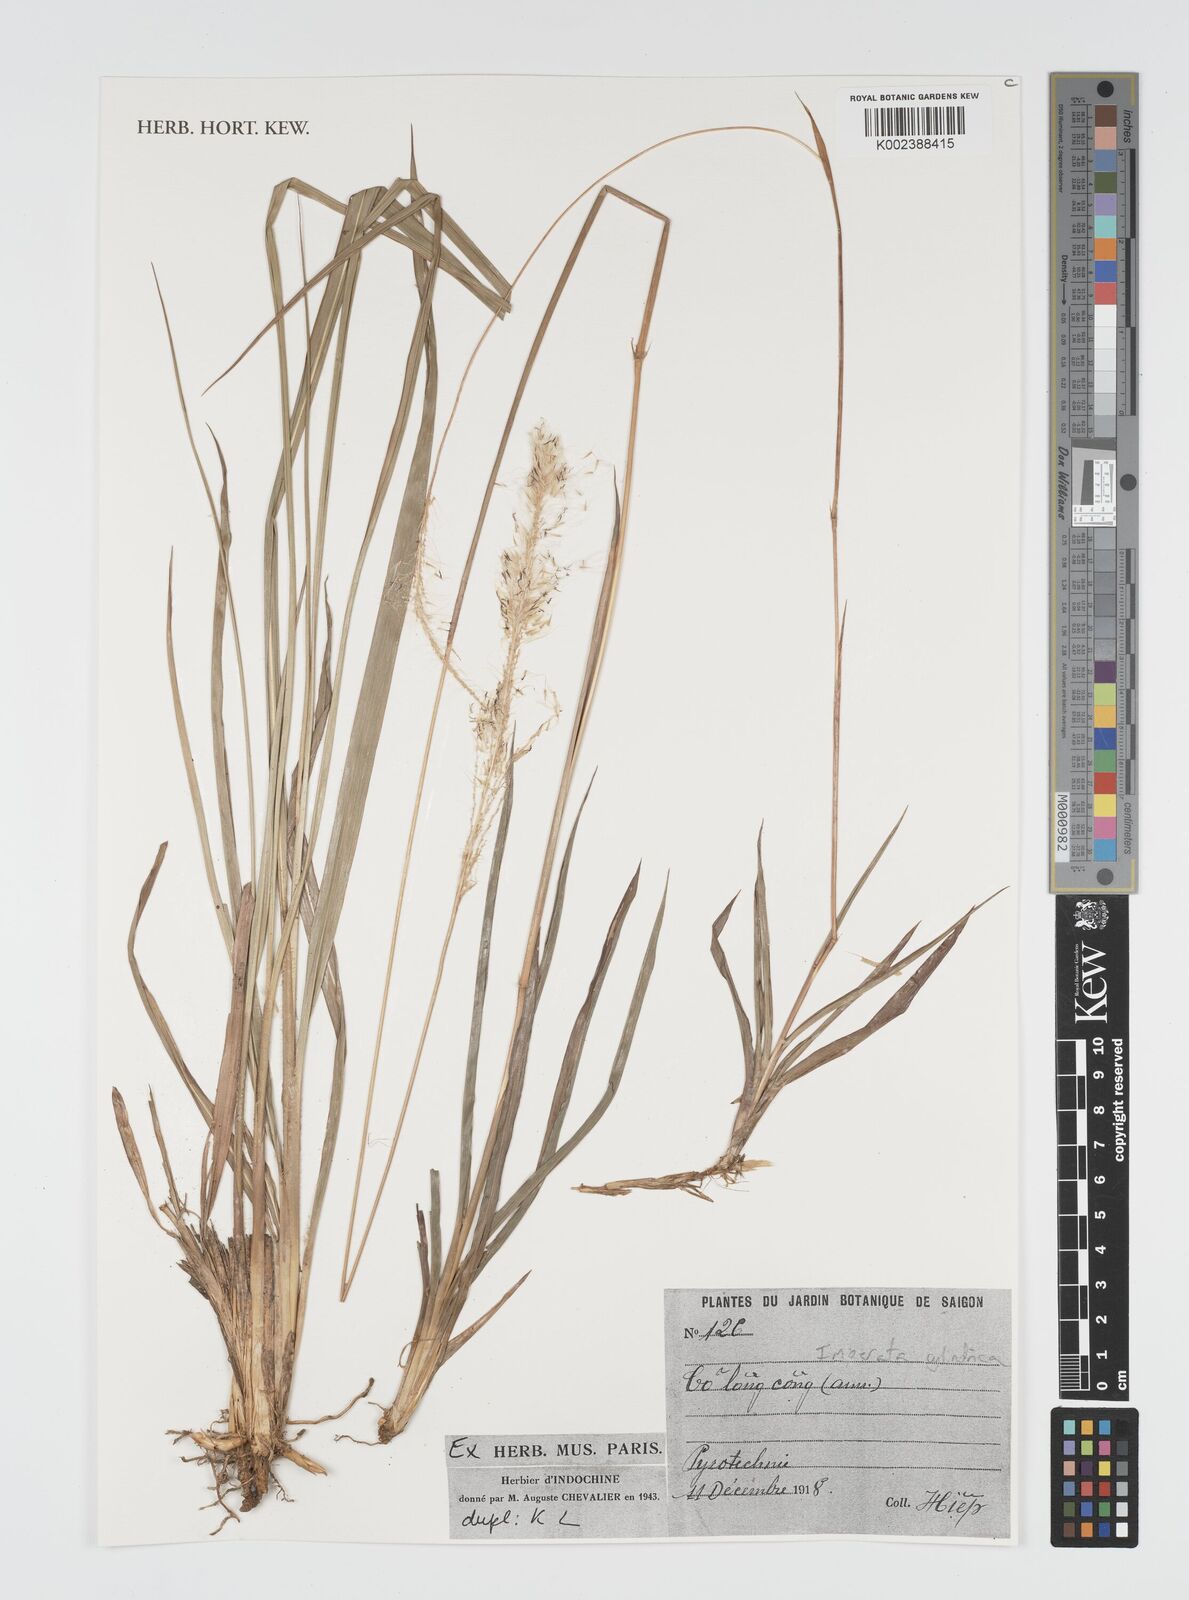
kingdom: Plantae
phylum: Tracheophyta
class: Liliopsida
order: Poales
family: Poaceae
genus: Imperata
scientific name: Imperata cylindrica
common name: Cogongrass
